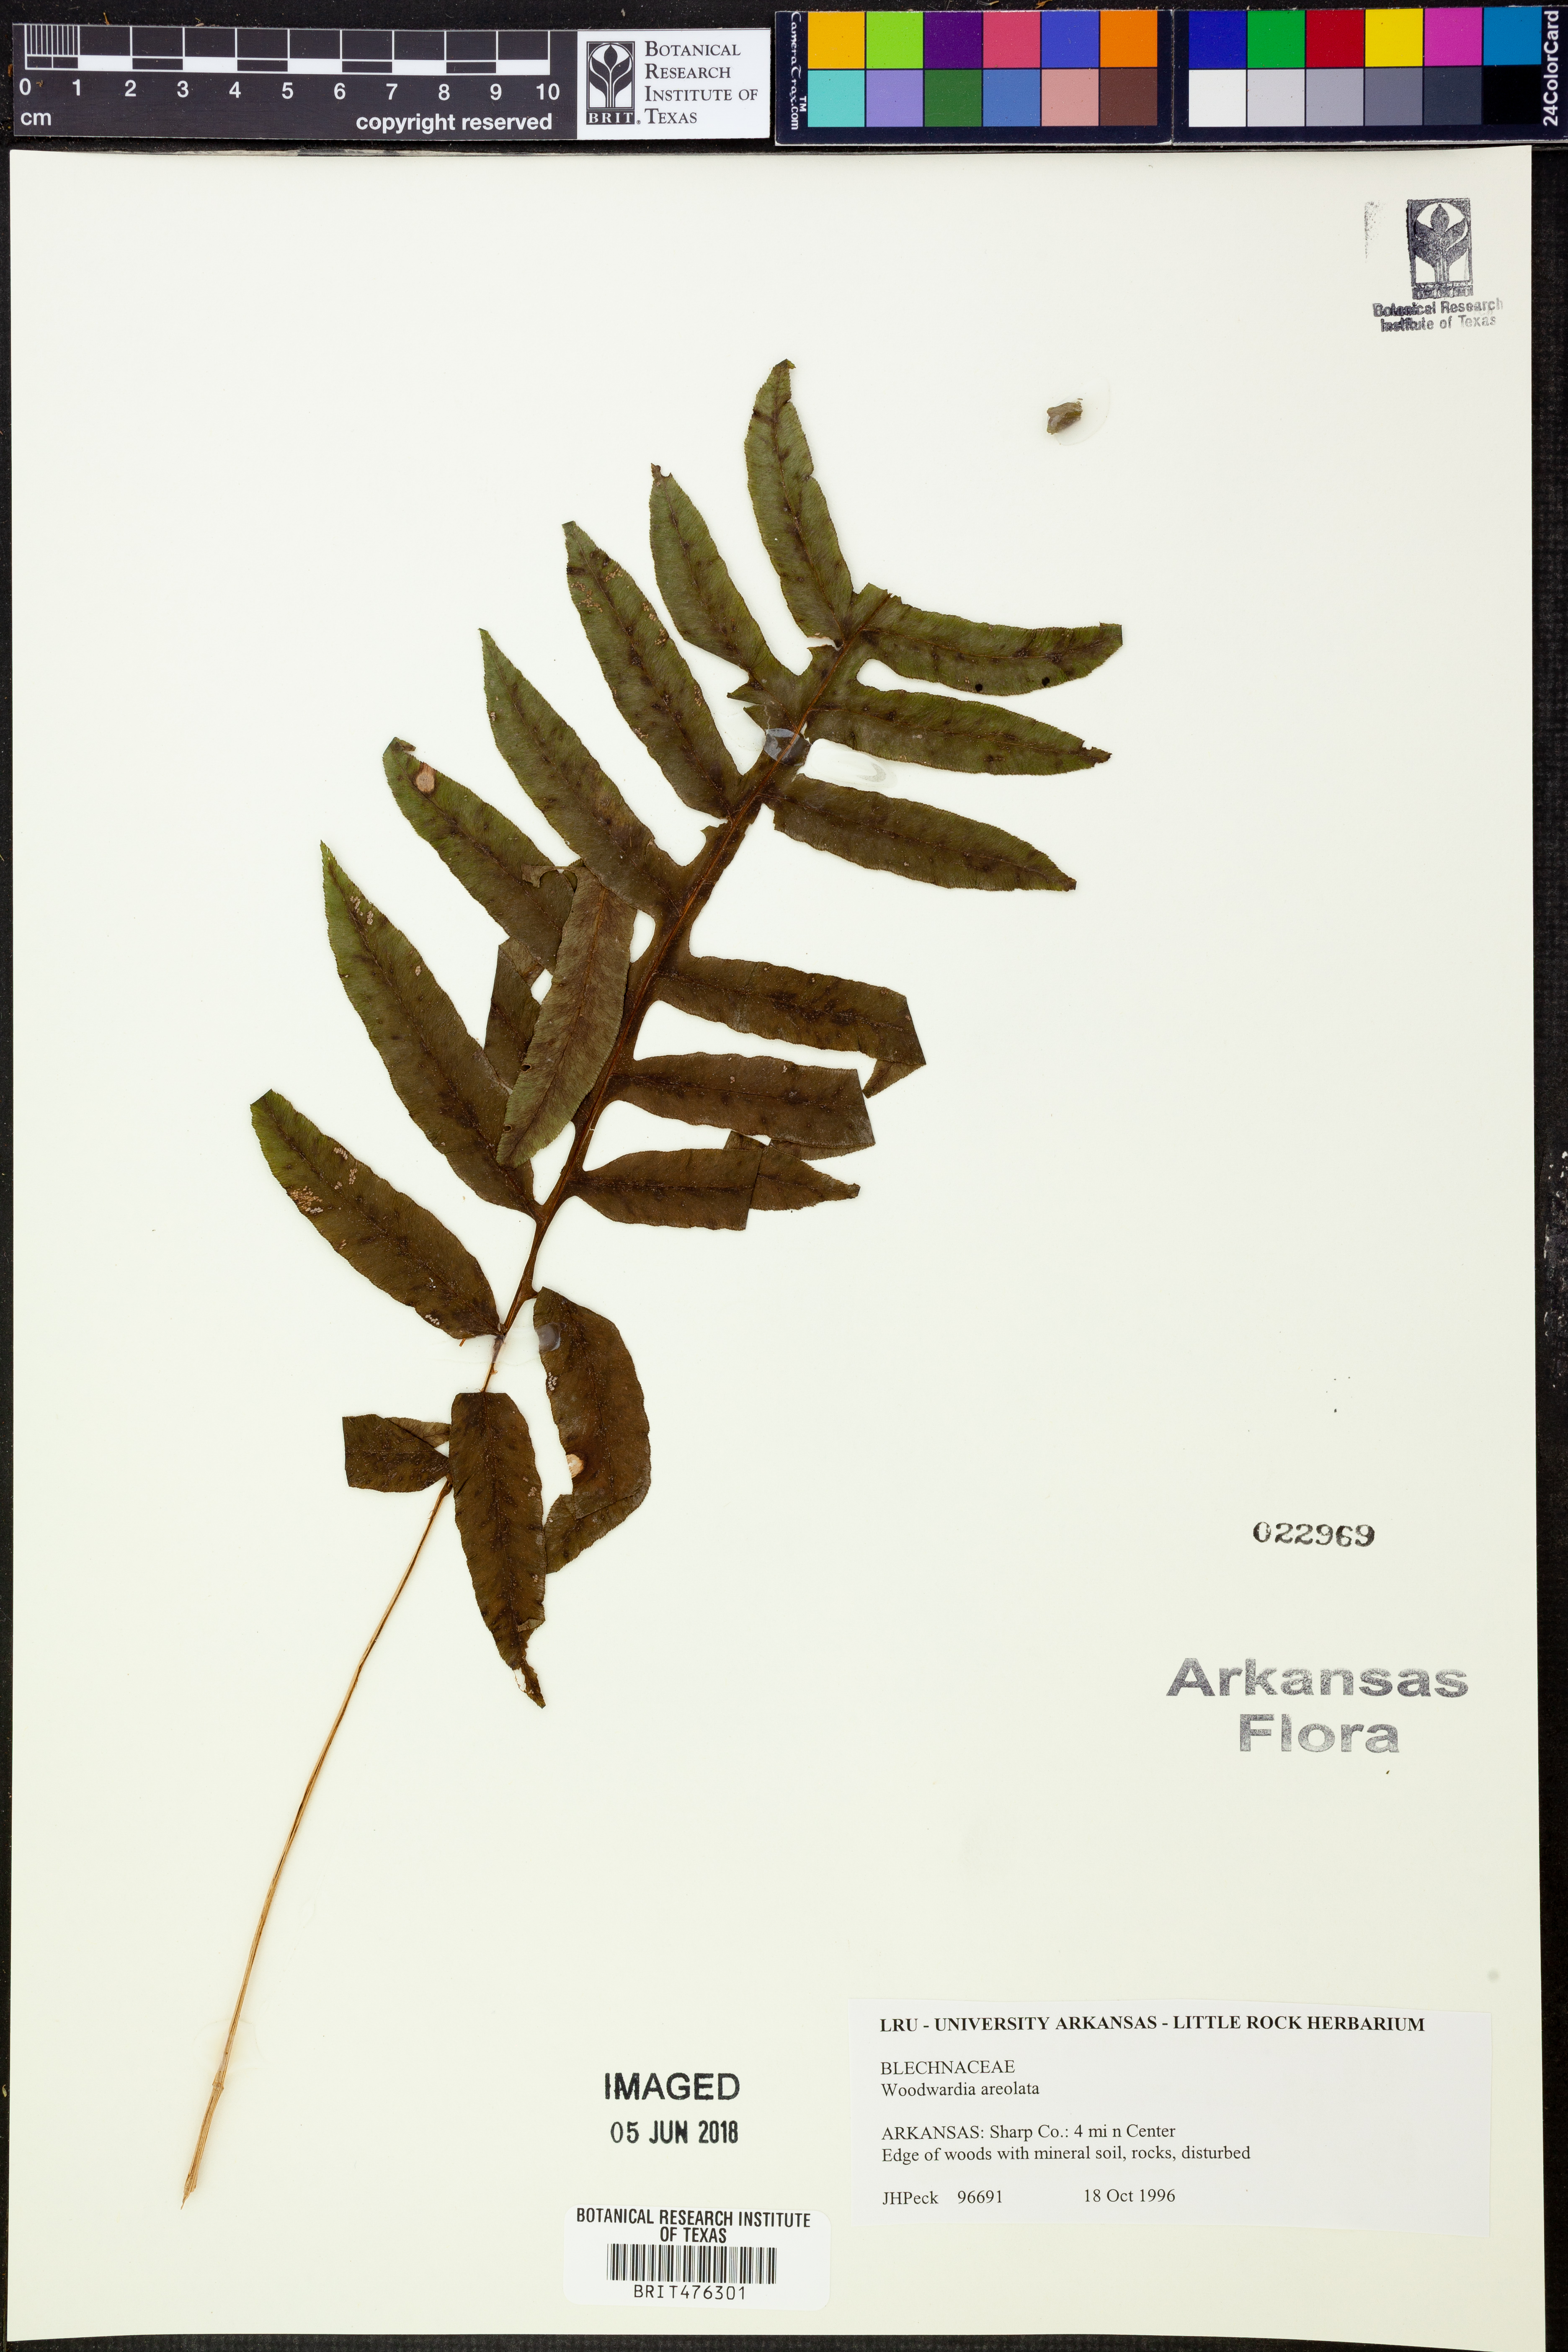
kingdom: Plantae
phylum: Tracheophyta
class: Polypodiopsida
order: Polypodiales
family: Blechnaceae
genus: Lorinseria
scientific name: Lorinseria areolata
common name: Dwarf chain fern
